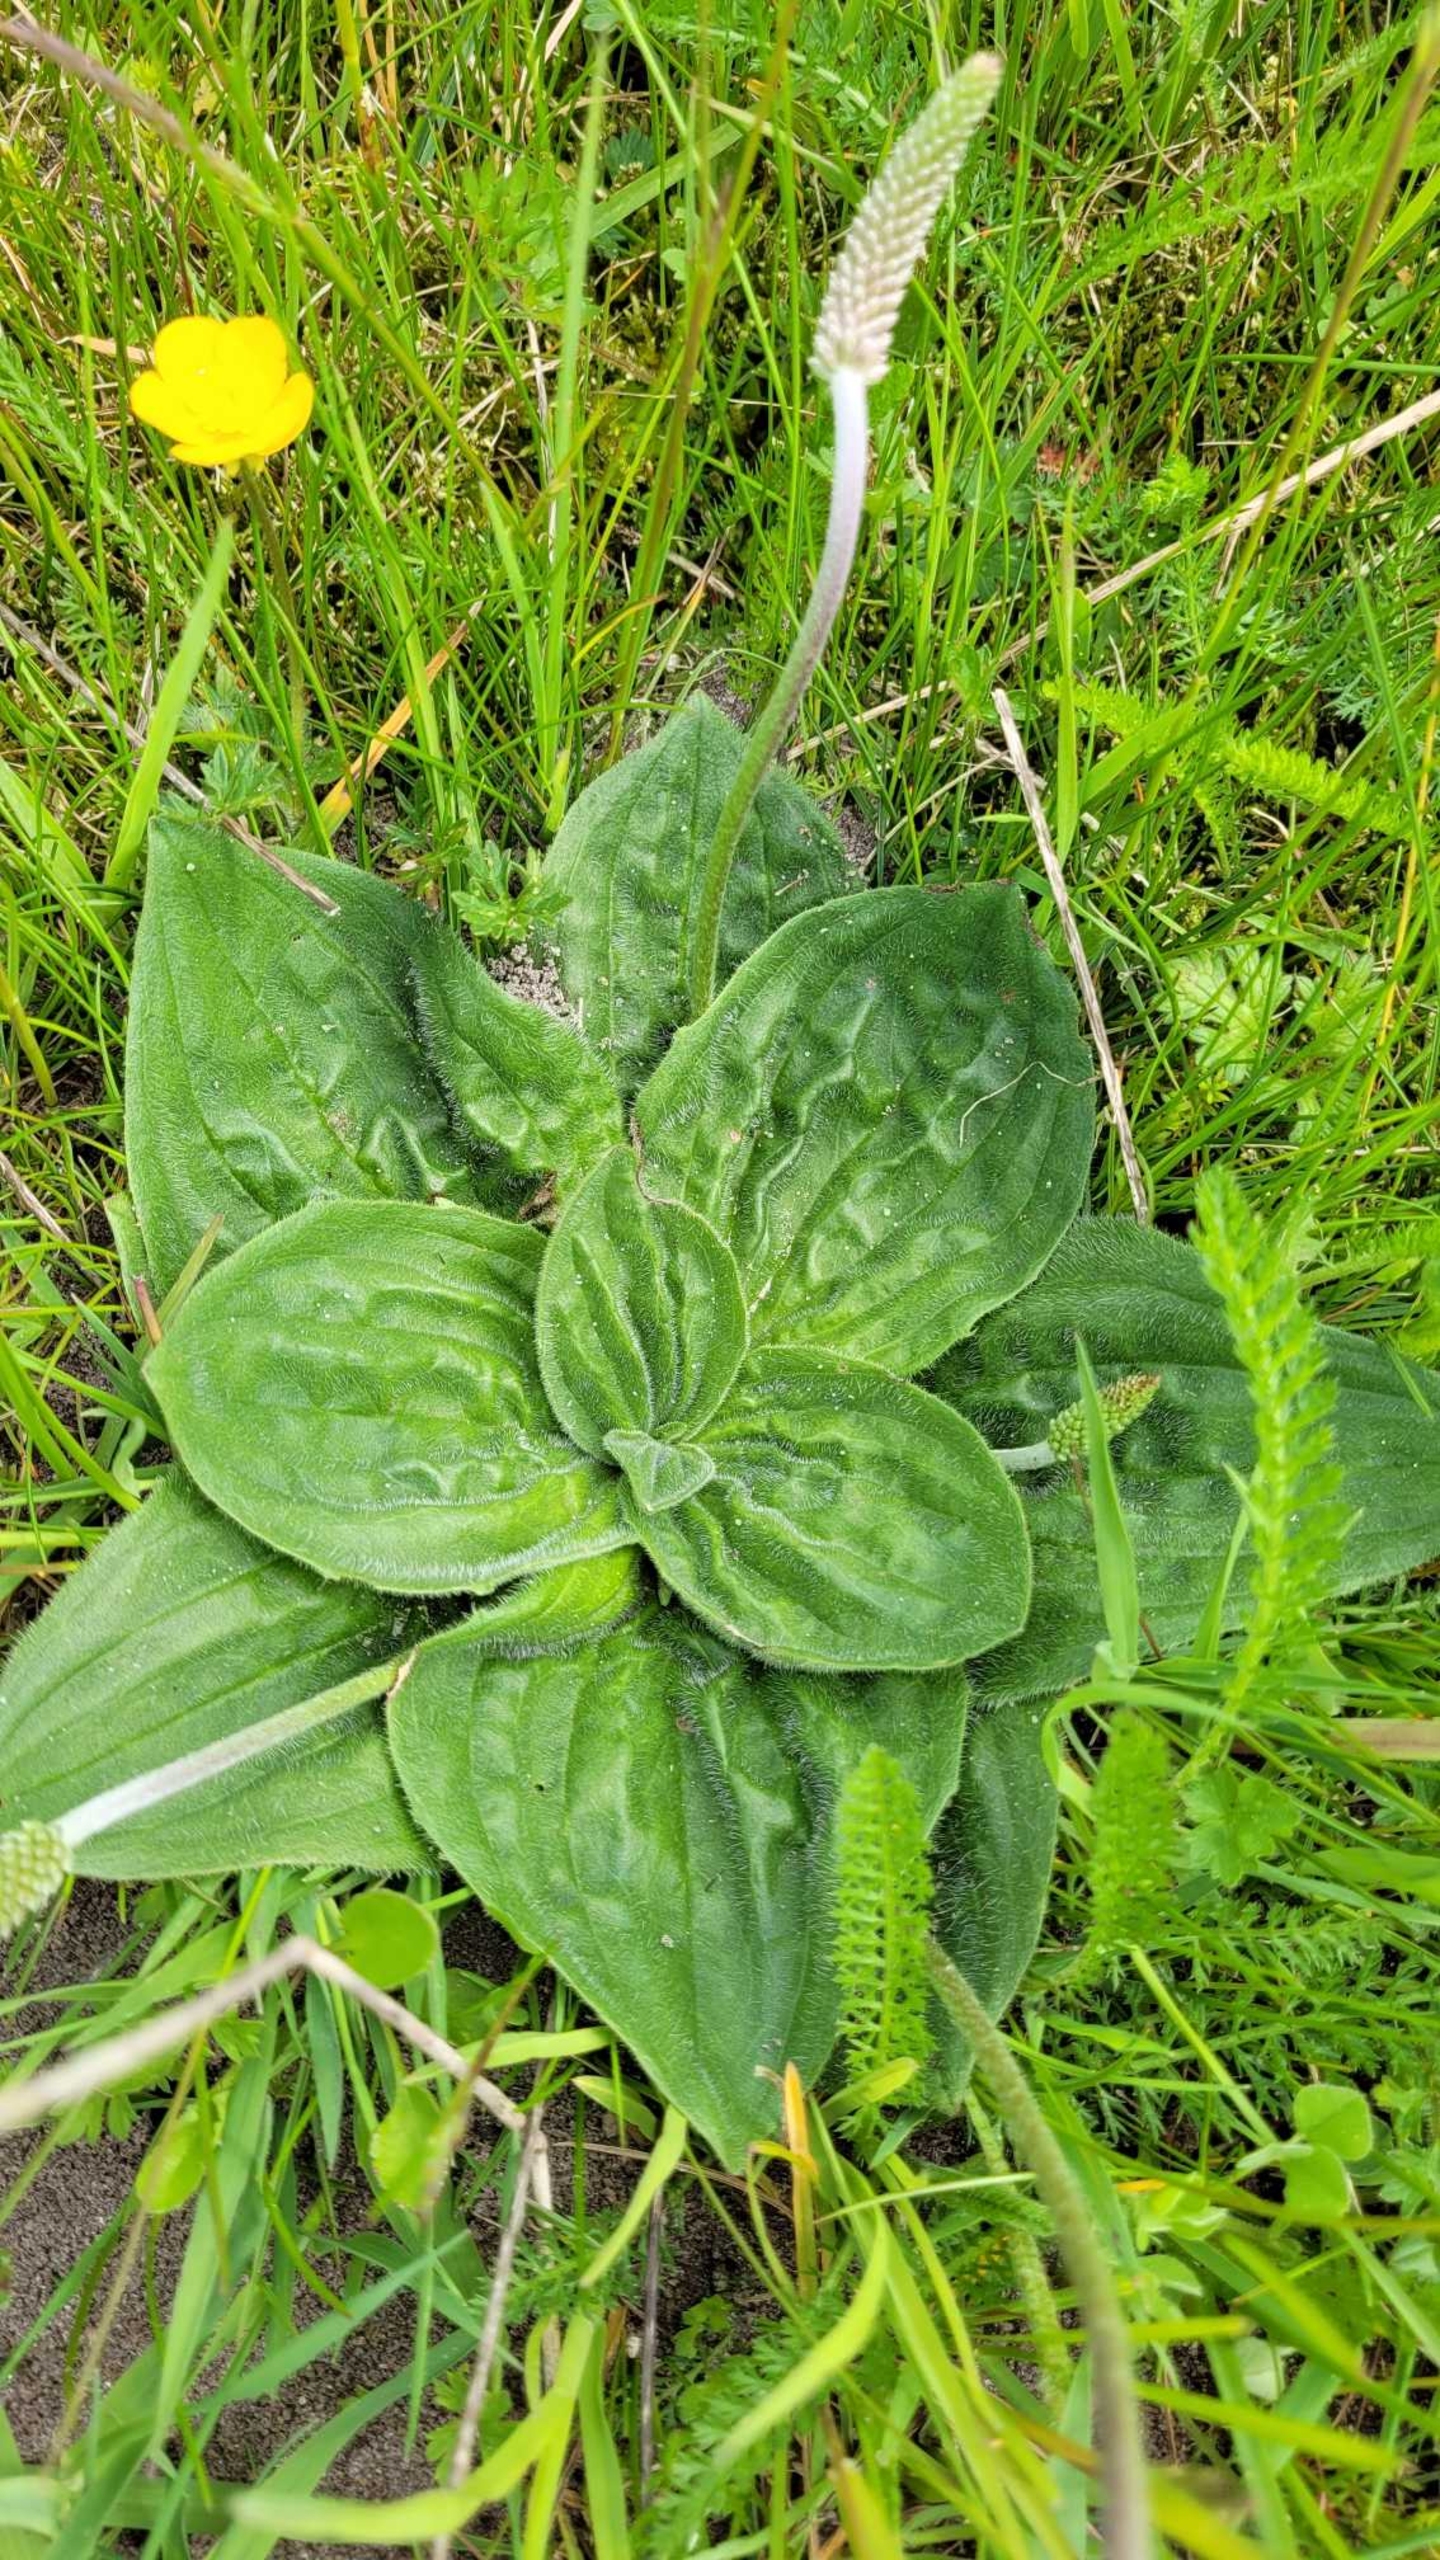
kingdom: Plantae
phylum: Tracheophyta
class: Magnoliopsida
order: Lamiales
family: Plantaginaceae
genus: Plantago
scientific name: Plantago media
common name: Dunet vejbred
